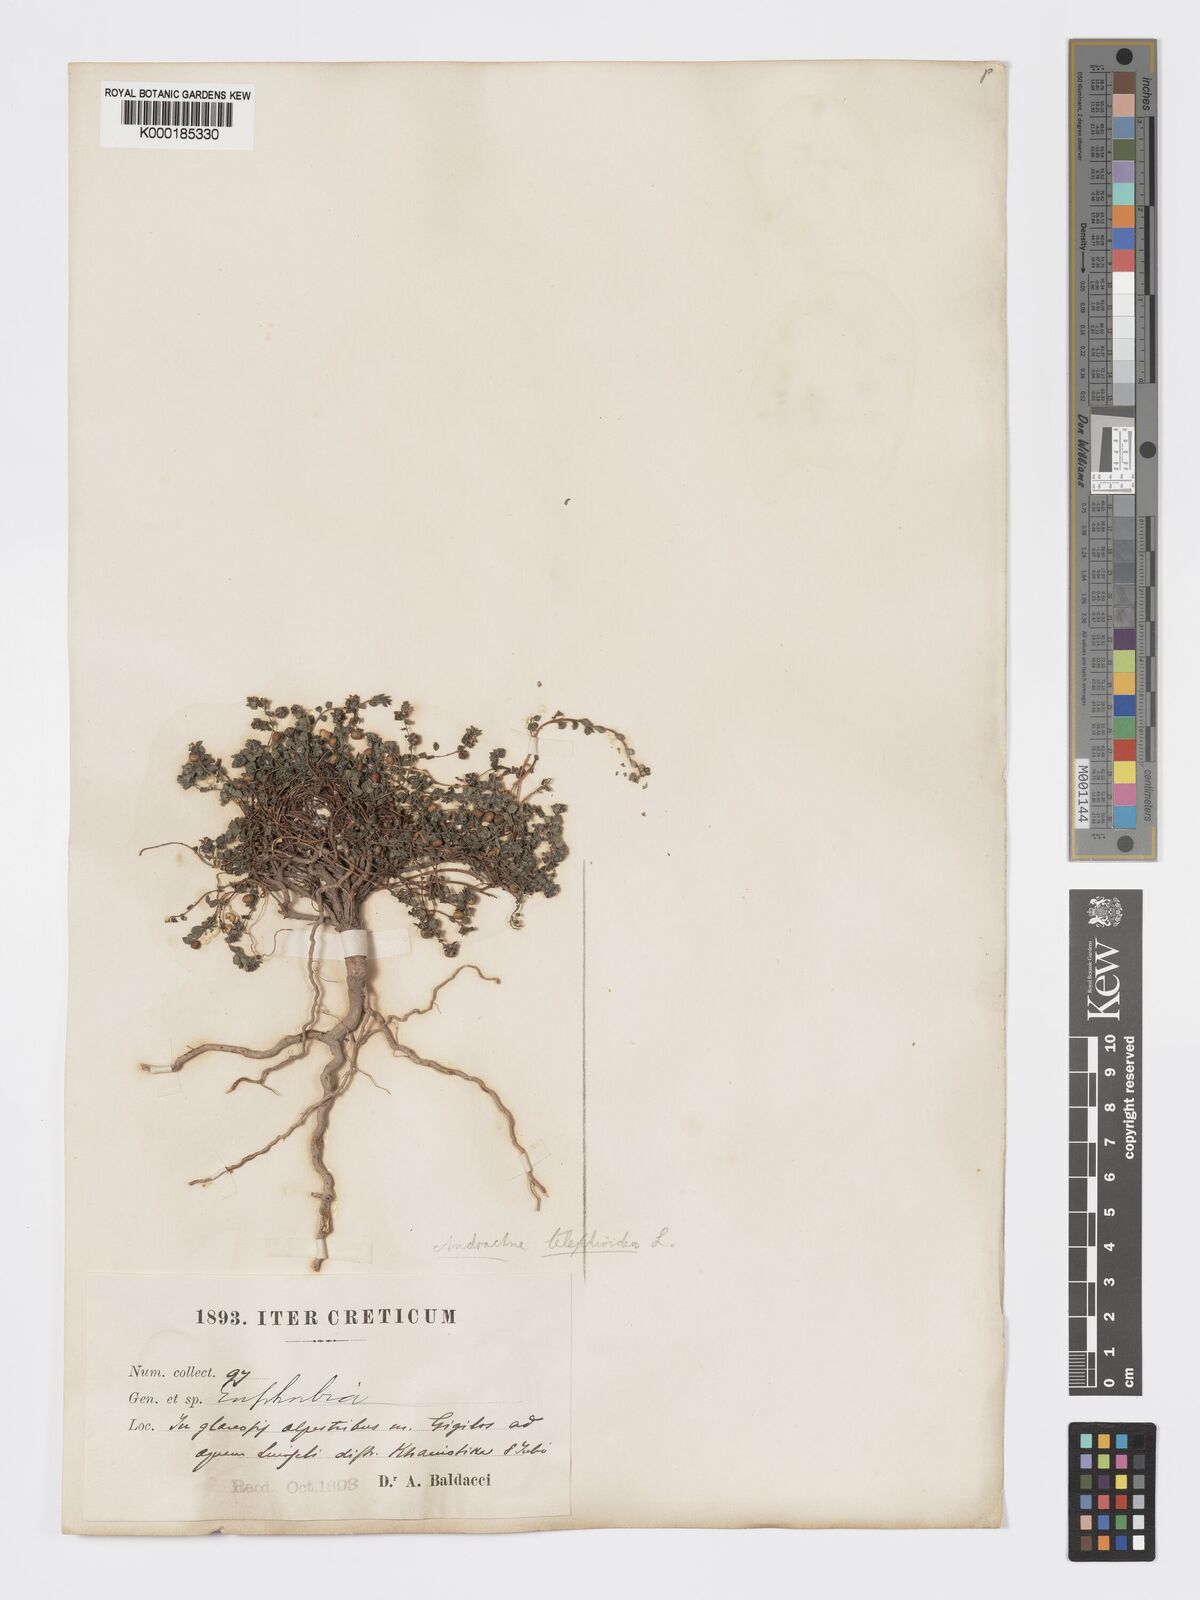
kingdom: Plantae
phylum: Tracheophyta
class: Magnoliopsida
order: Malpighiales
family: Phyllanthaceae
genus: Andrachne
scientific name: Andrachne telephioides
